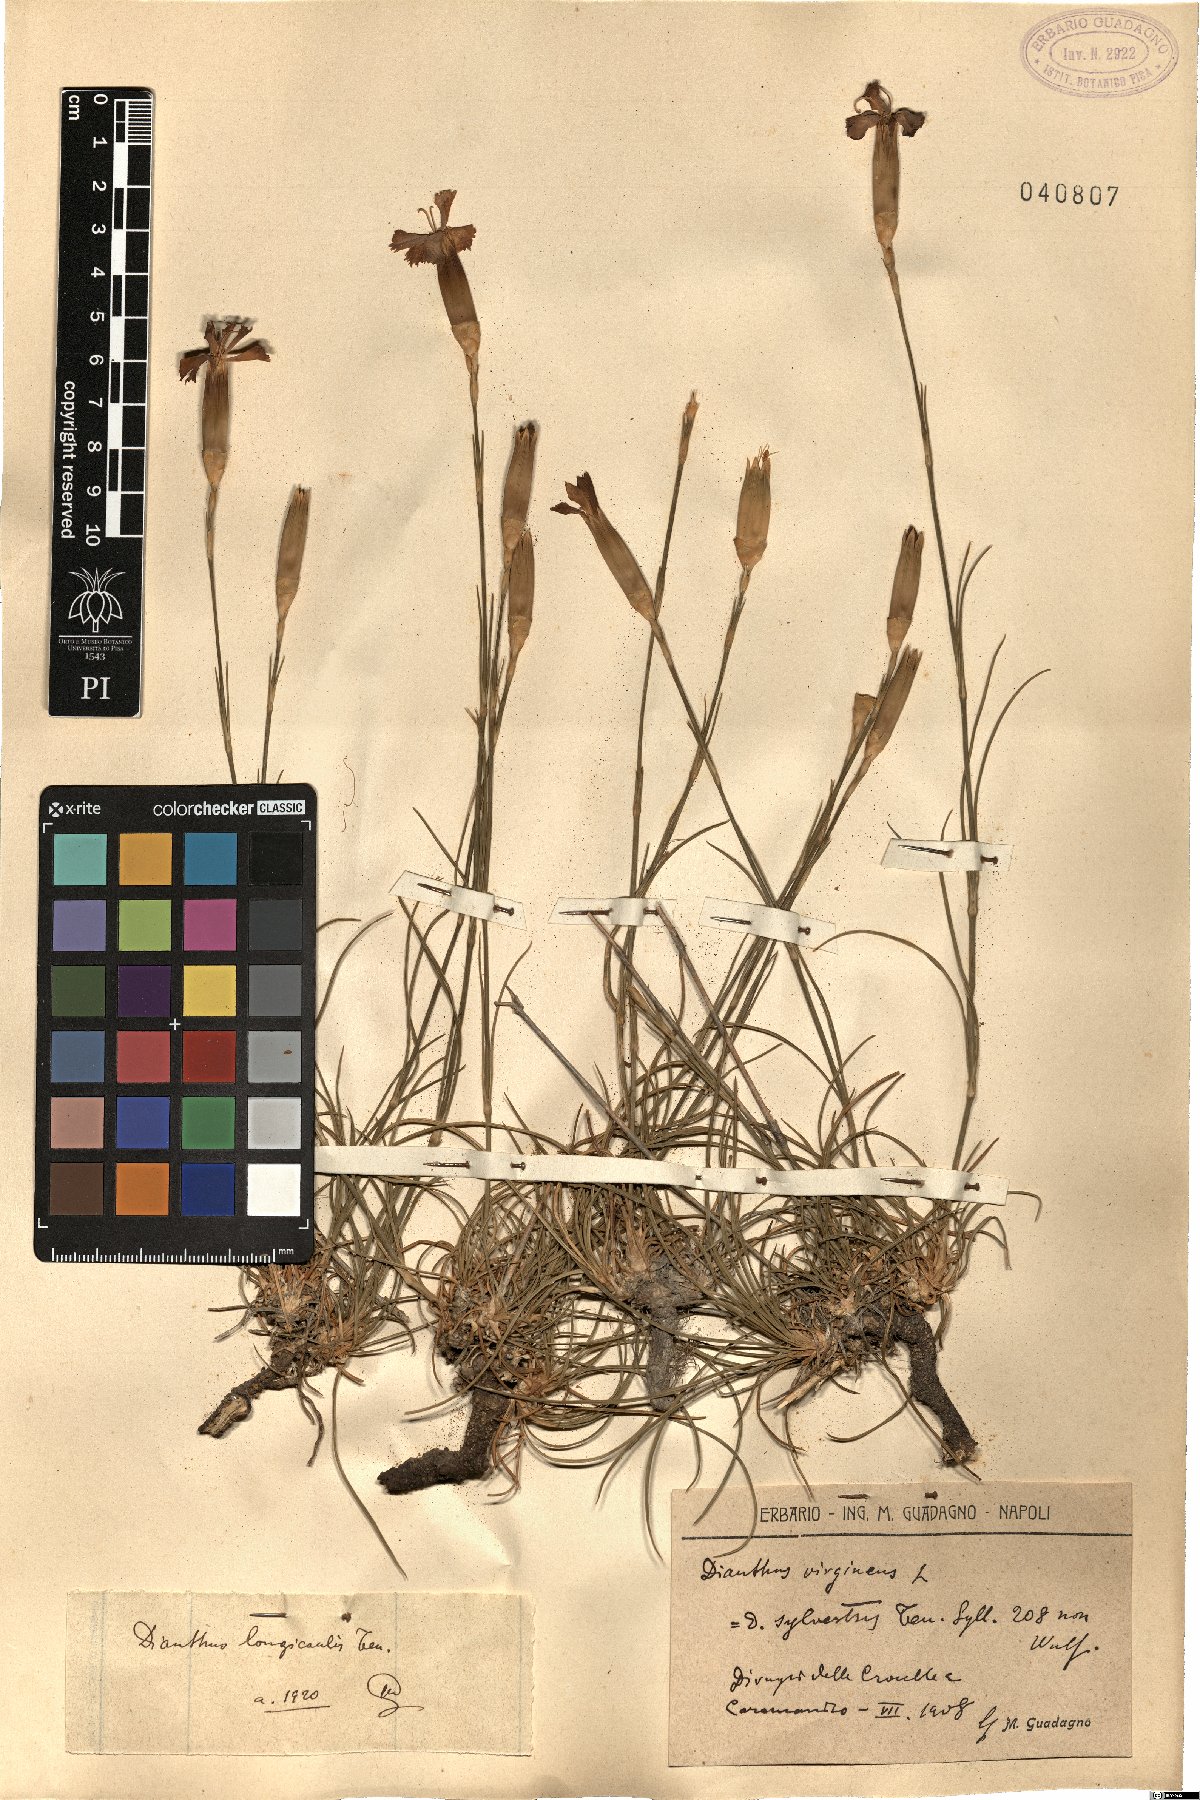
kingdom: Plantae
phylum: Tracheophyta
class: Magnoliopsida
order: Caryophyllales
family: Caryophyllaceae
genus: Dianthus
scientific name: Dianthus virgineus
